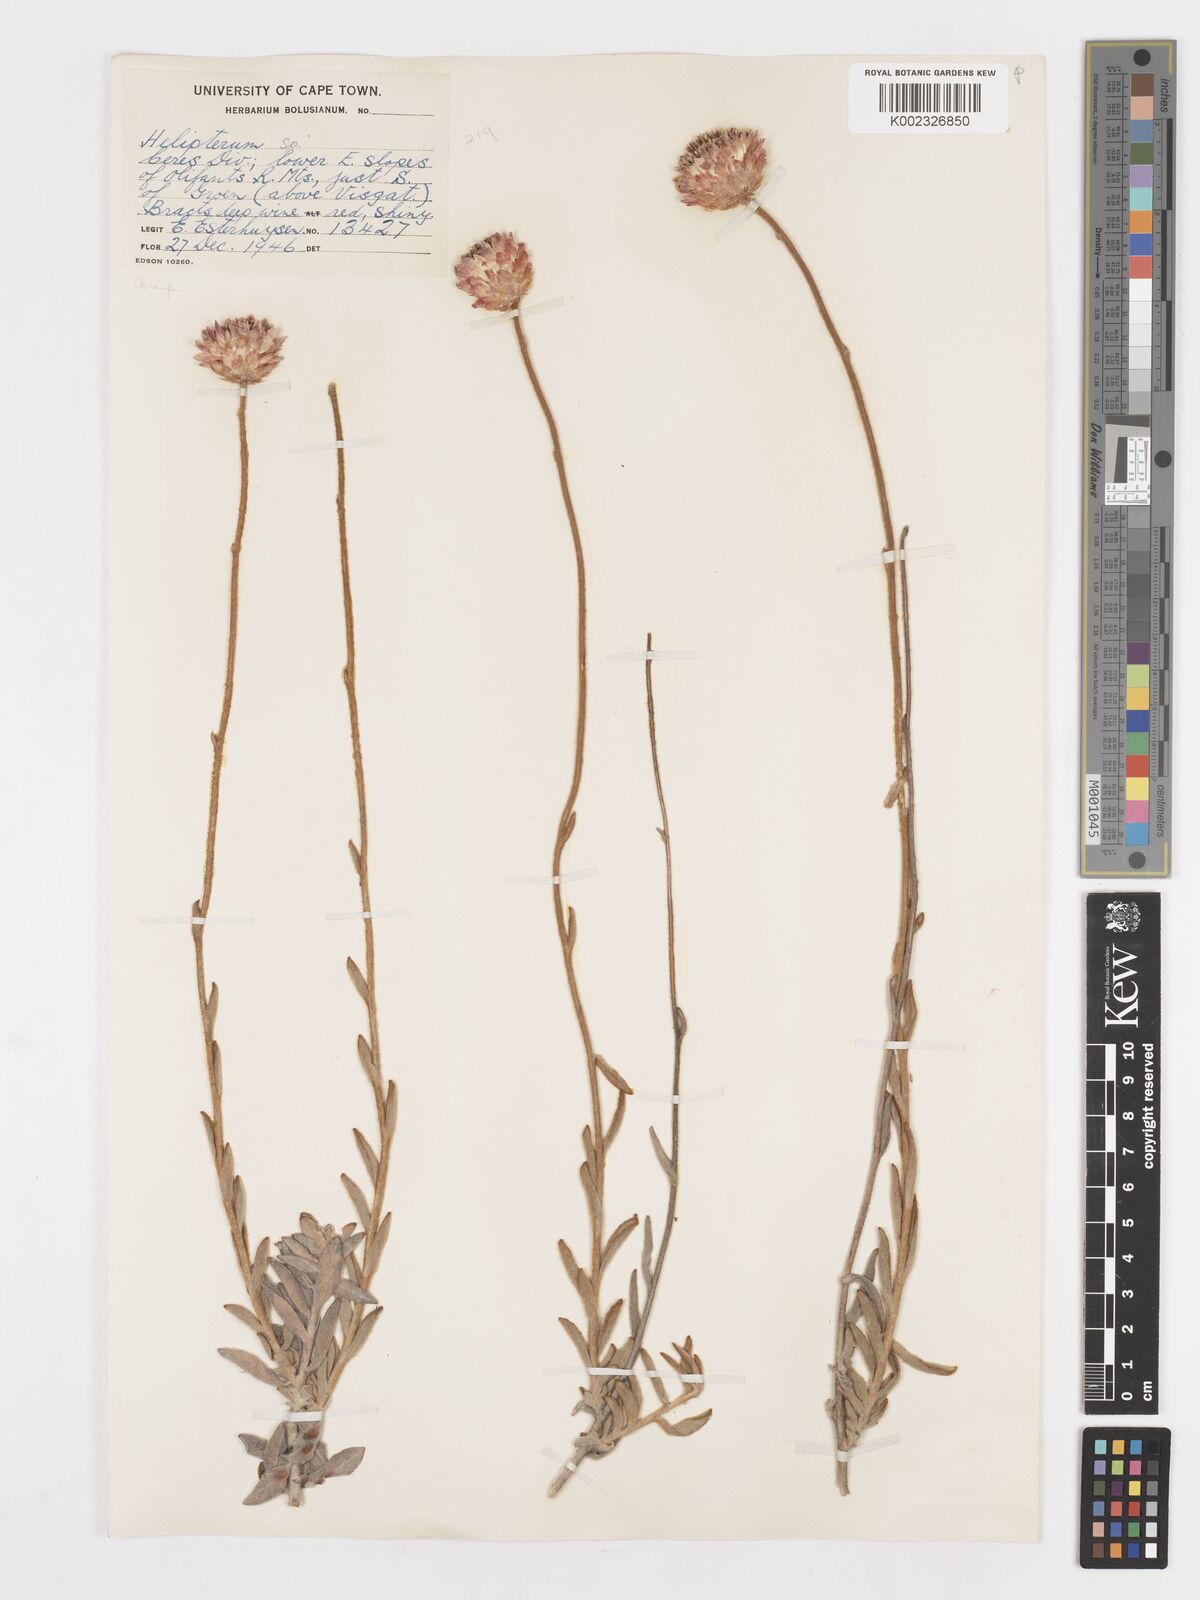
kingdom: Plantae
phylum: Tracheophyta
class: Magnoliopsida
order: Asterales
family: Asteraceae
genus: Syncarpha
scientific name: Syncarpha
